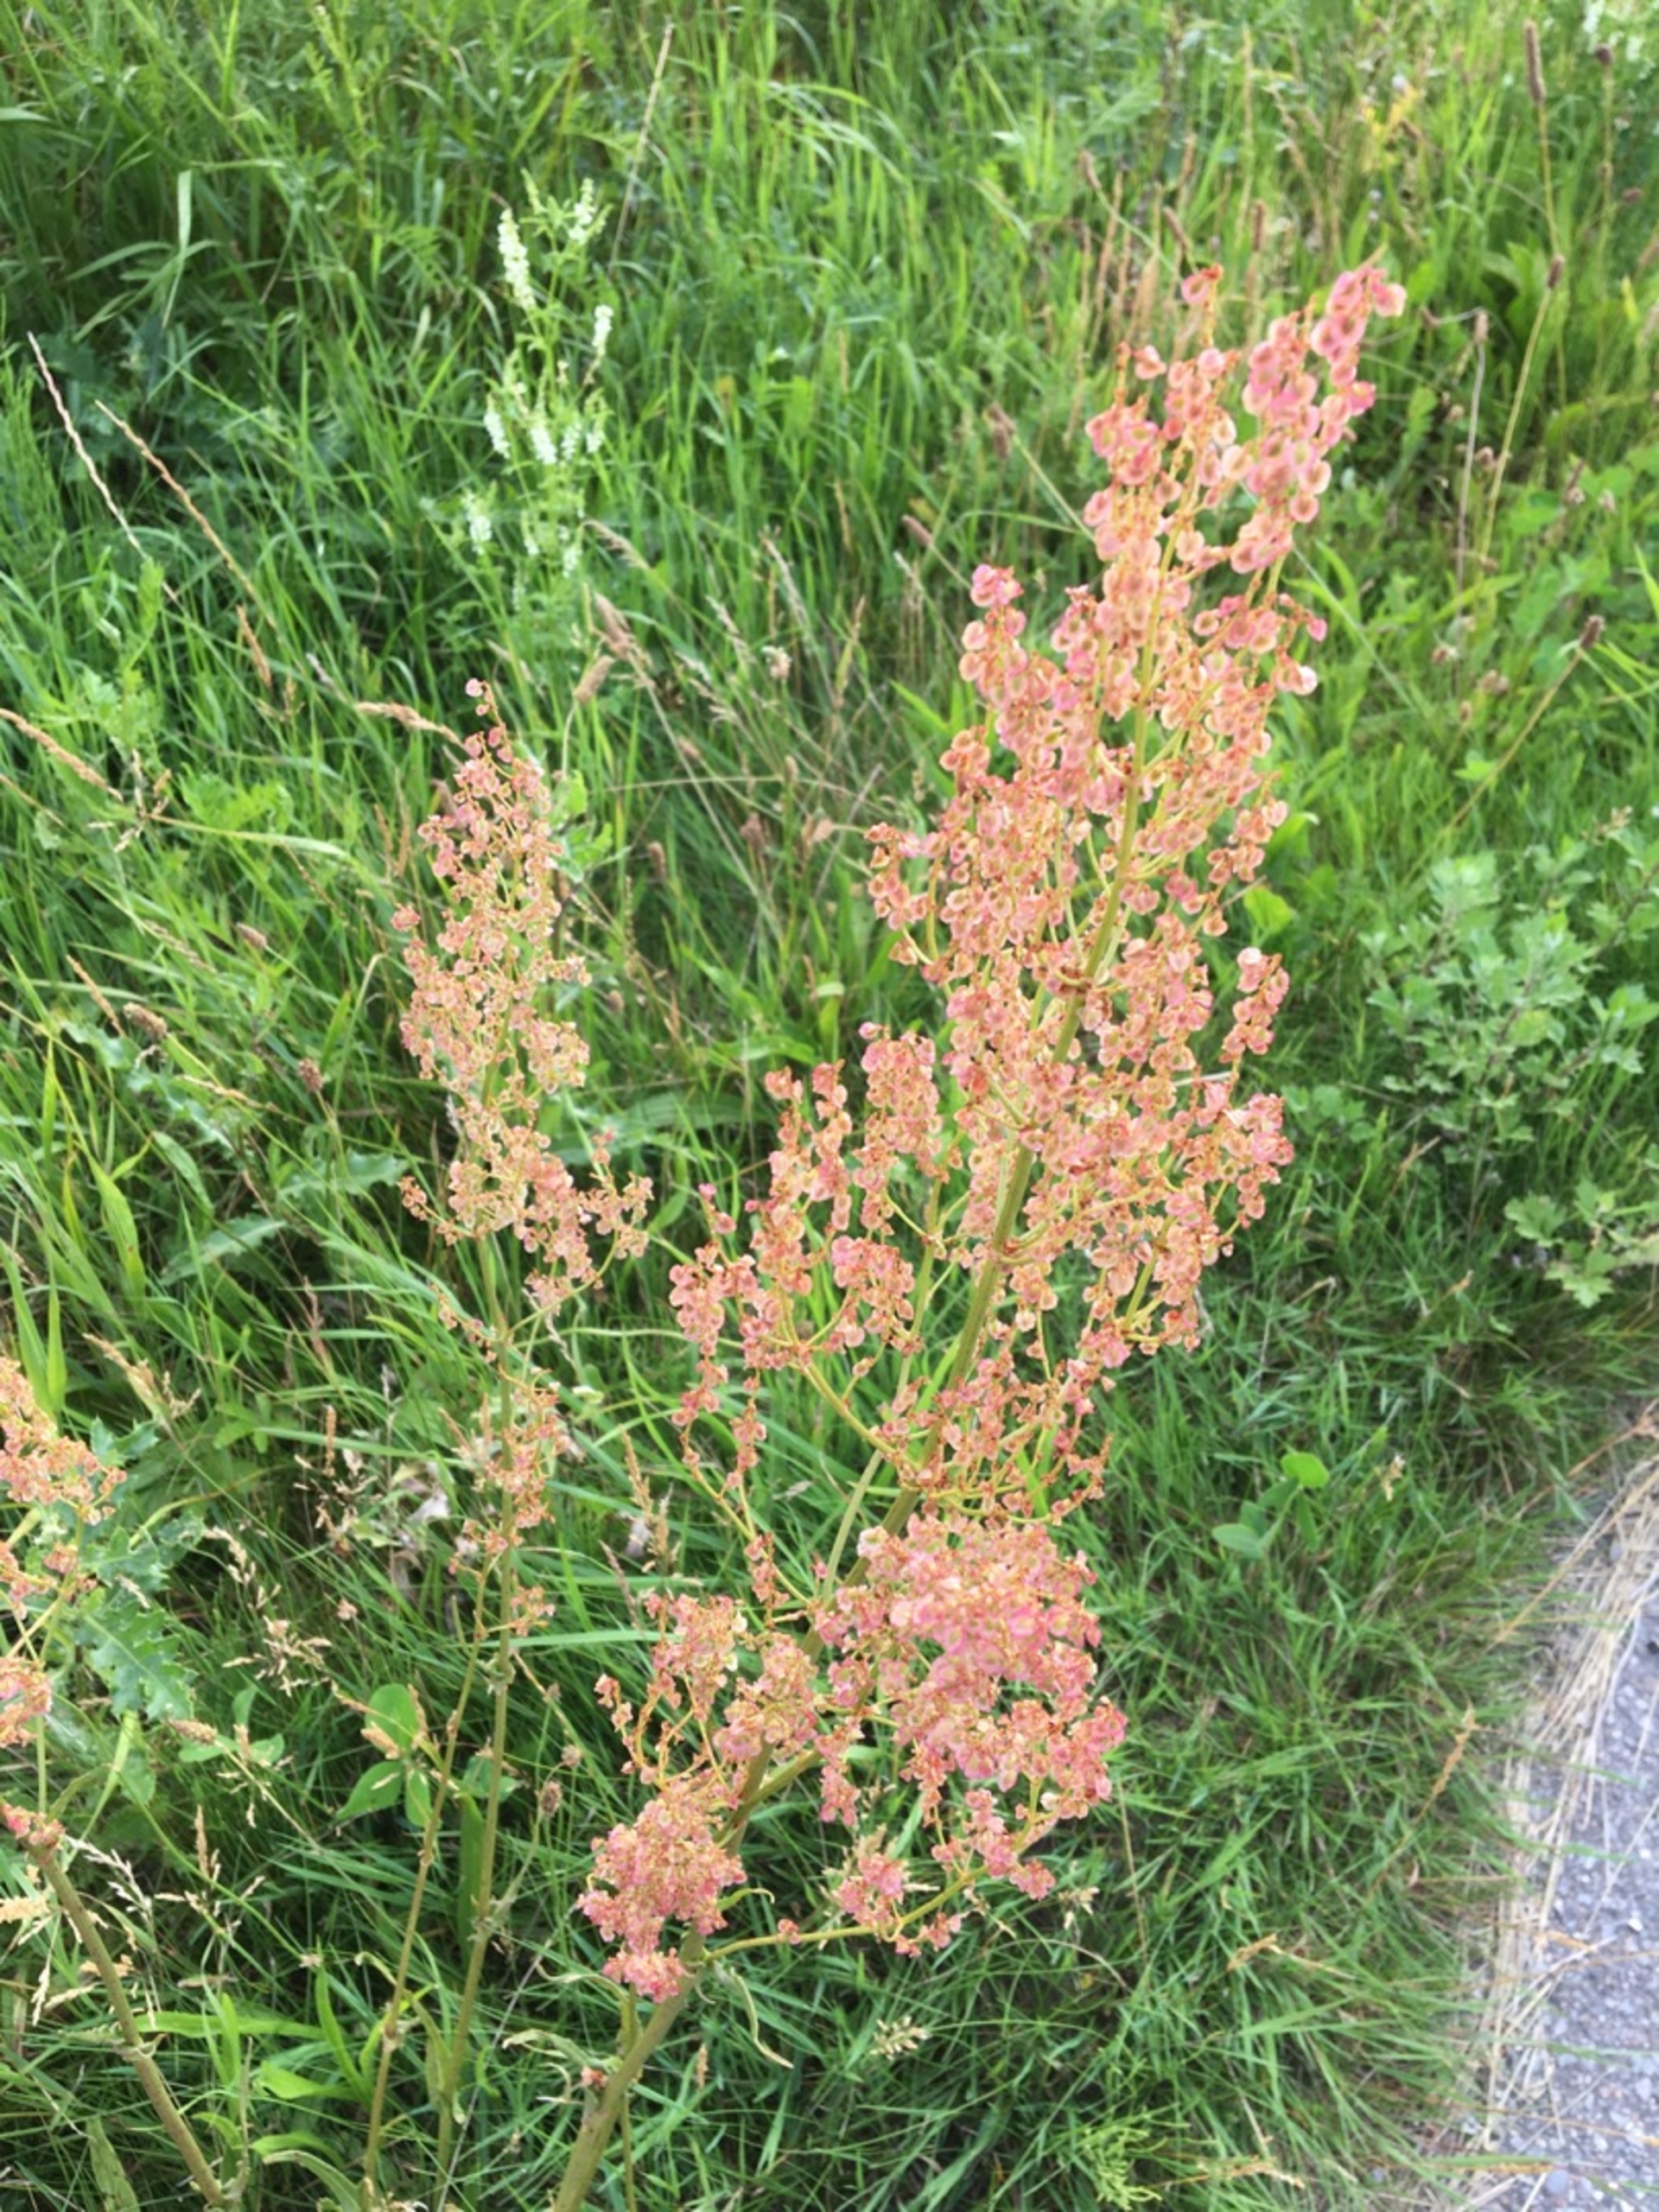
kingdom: Plantae
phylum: Tracheophyta
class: Magnoliopsida
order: Caryophyllales
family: Polygonaceae
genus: Rumex
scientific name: Rumex thyrsiflorus
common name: Dusk-syre
